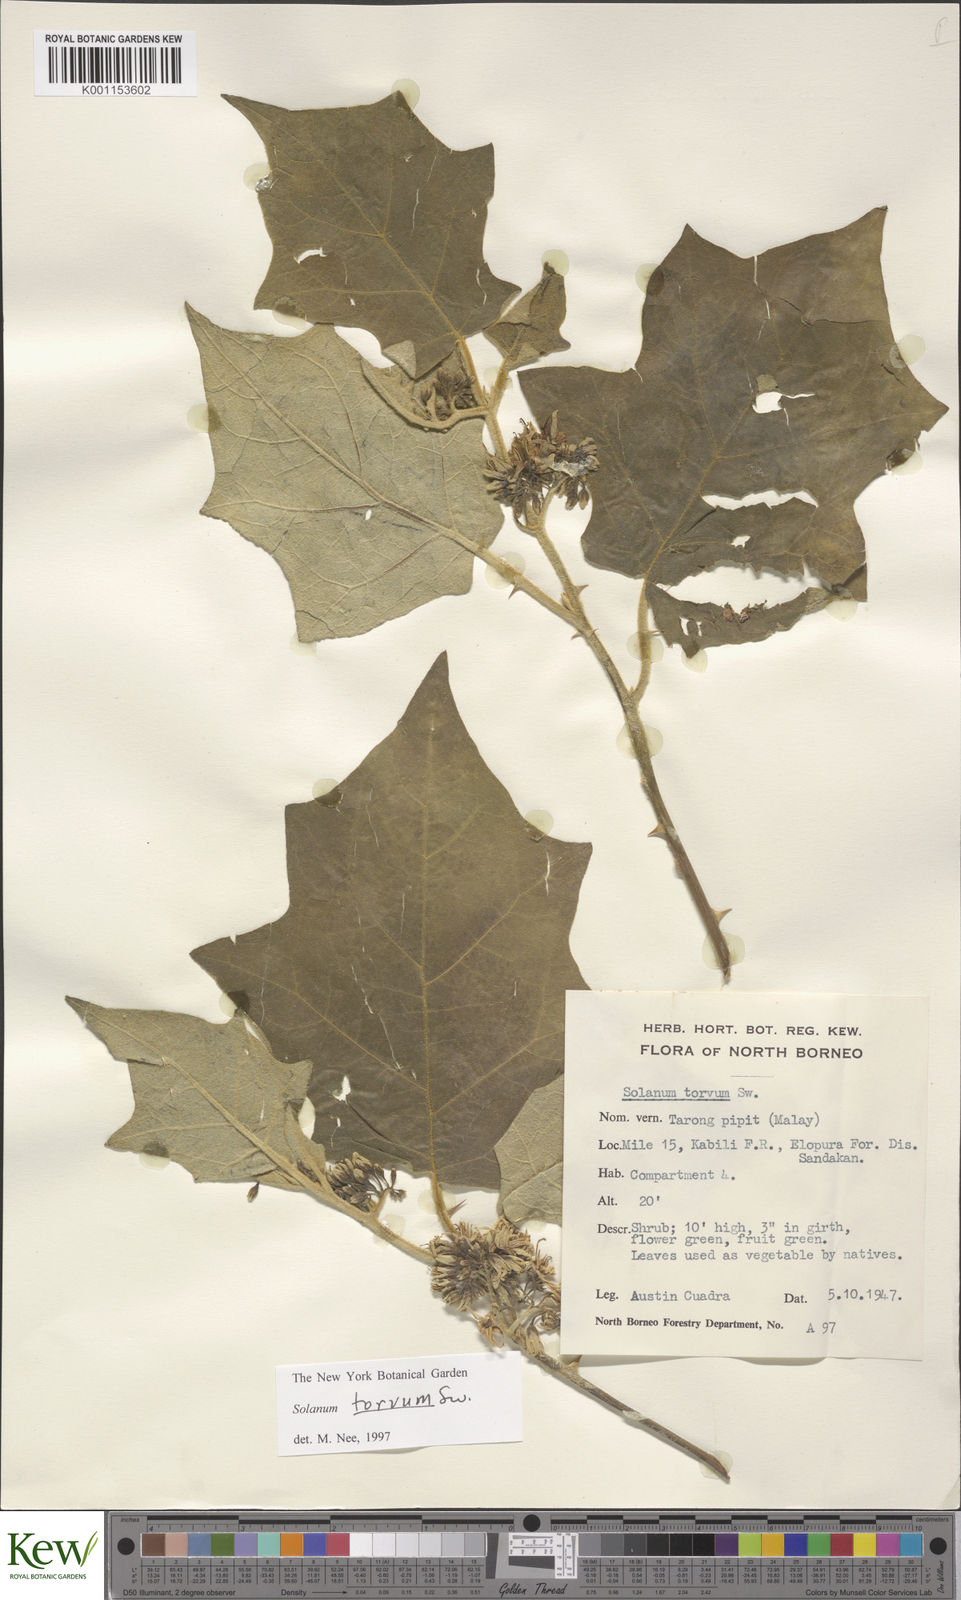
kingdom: Plantae
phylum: Tracheophyta
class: Magnoliopsida
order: Solanales
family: Solanaceae
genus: Solanum
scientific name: Solanum torvum
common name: Turkey berry
